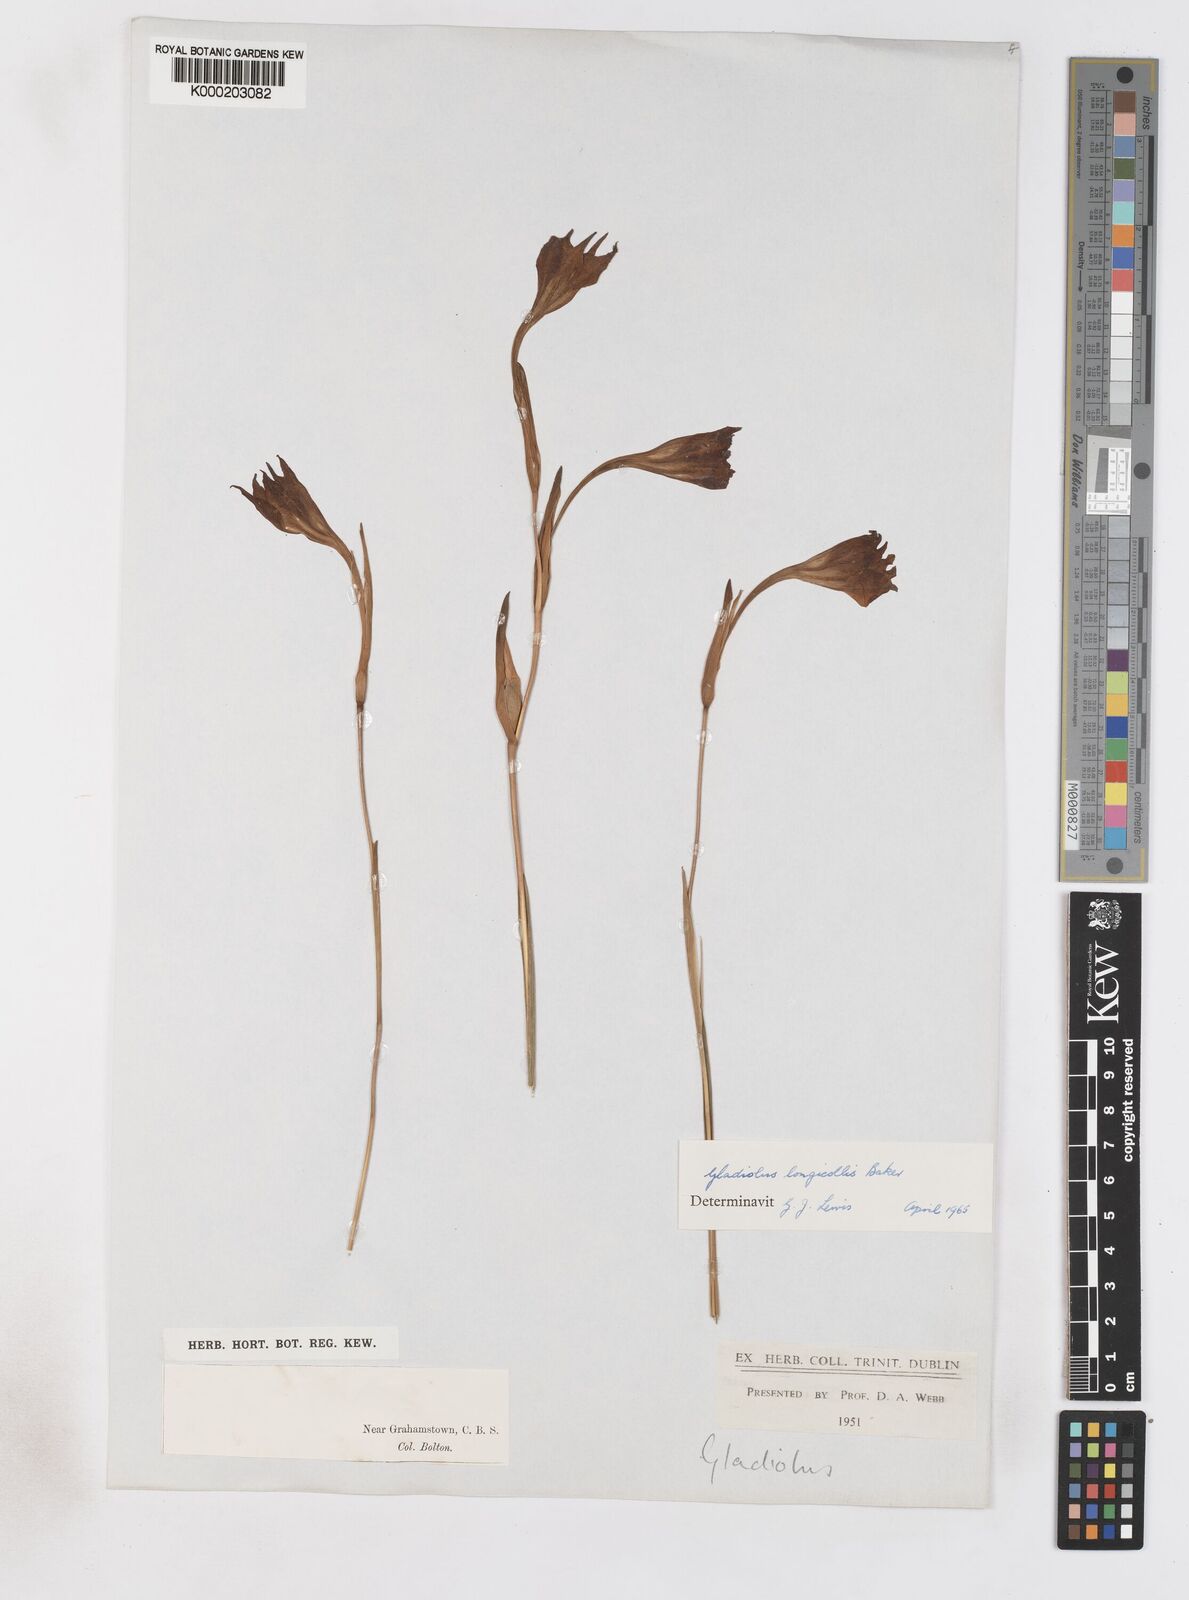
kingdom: Plantae
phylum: Tracheophyta
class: Liliopsida
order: Asparagales
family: Iridaceae
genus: Gladiolus
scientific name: Gladiolus longicollis
